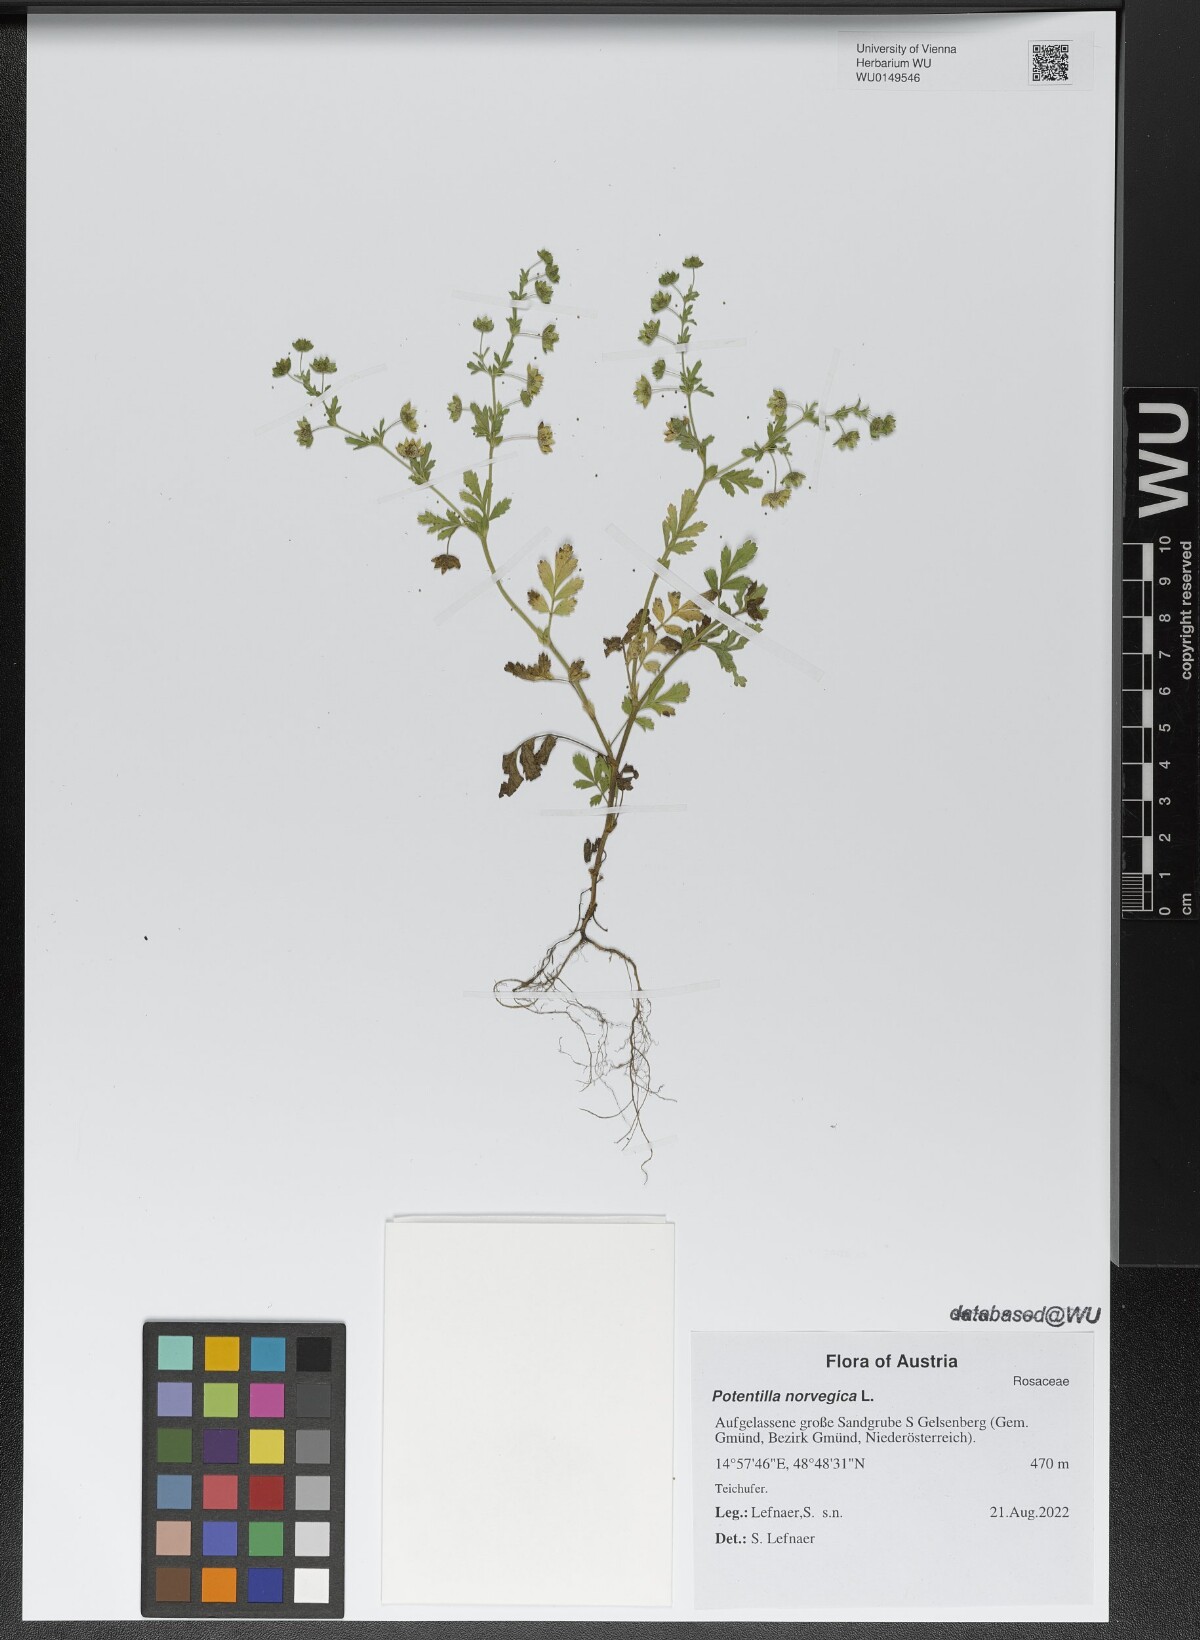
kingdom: Plantae
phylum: Tracheophyta
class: Magnoliopsida
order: Rosales
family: Rosaceae
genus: Potentilla
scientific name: Potentilla norvegica
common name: Ternate-leaved cinquefoil
